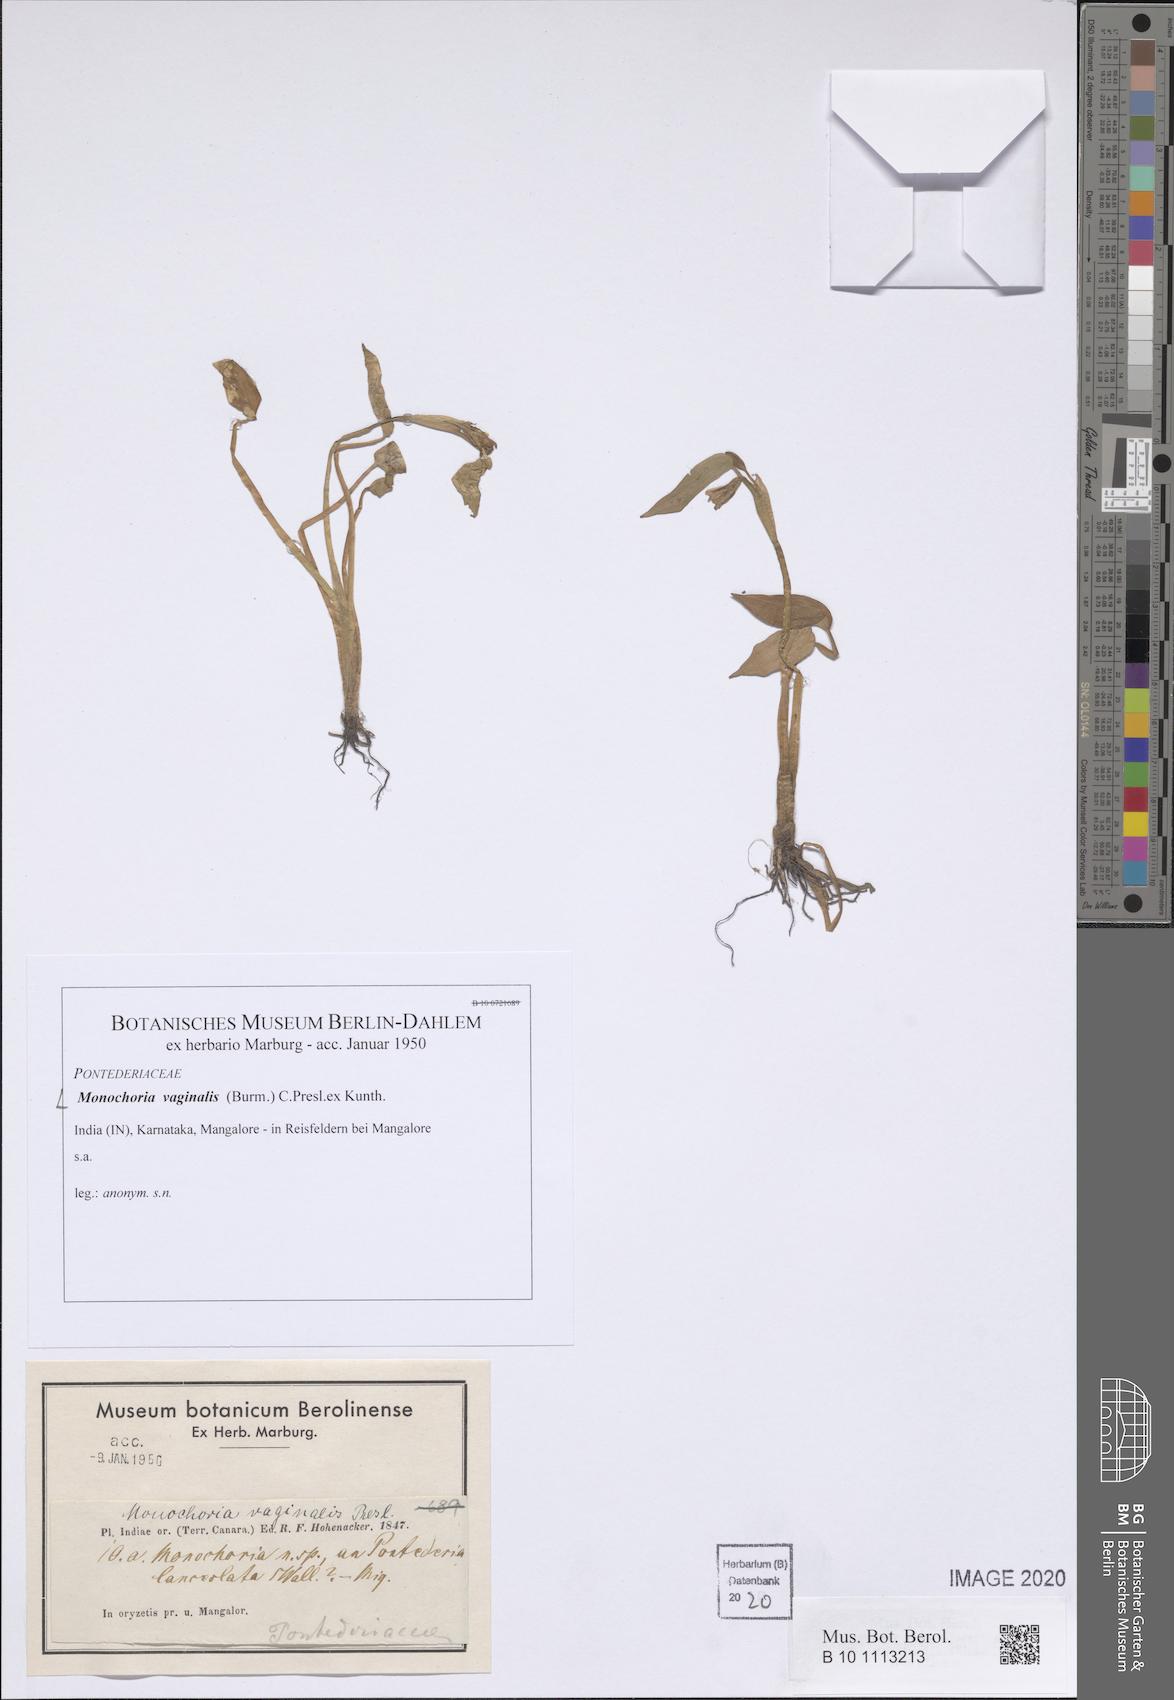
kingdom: Plantae
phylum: Tracheophyta
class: Liliopsida
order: Commelinales
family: Pontederiaceae
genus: Pontederia
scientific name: Pontederia vaginalis
